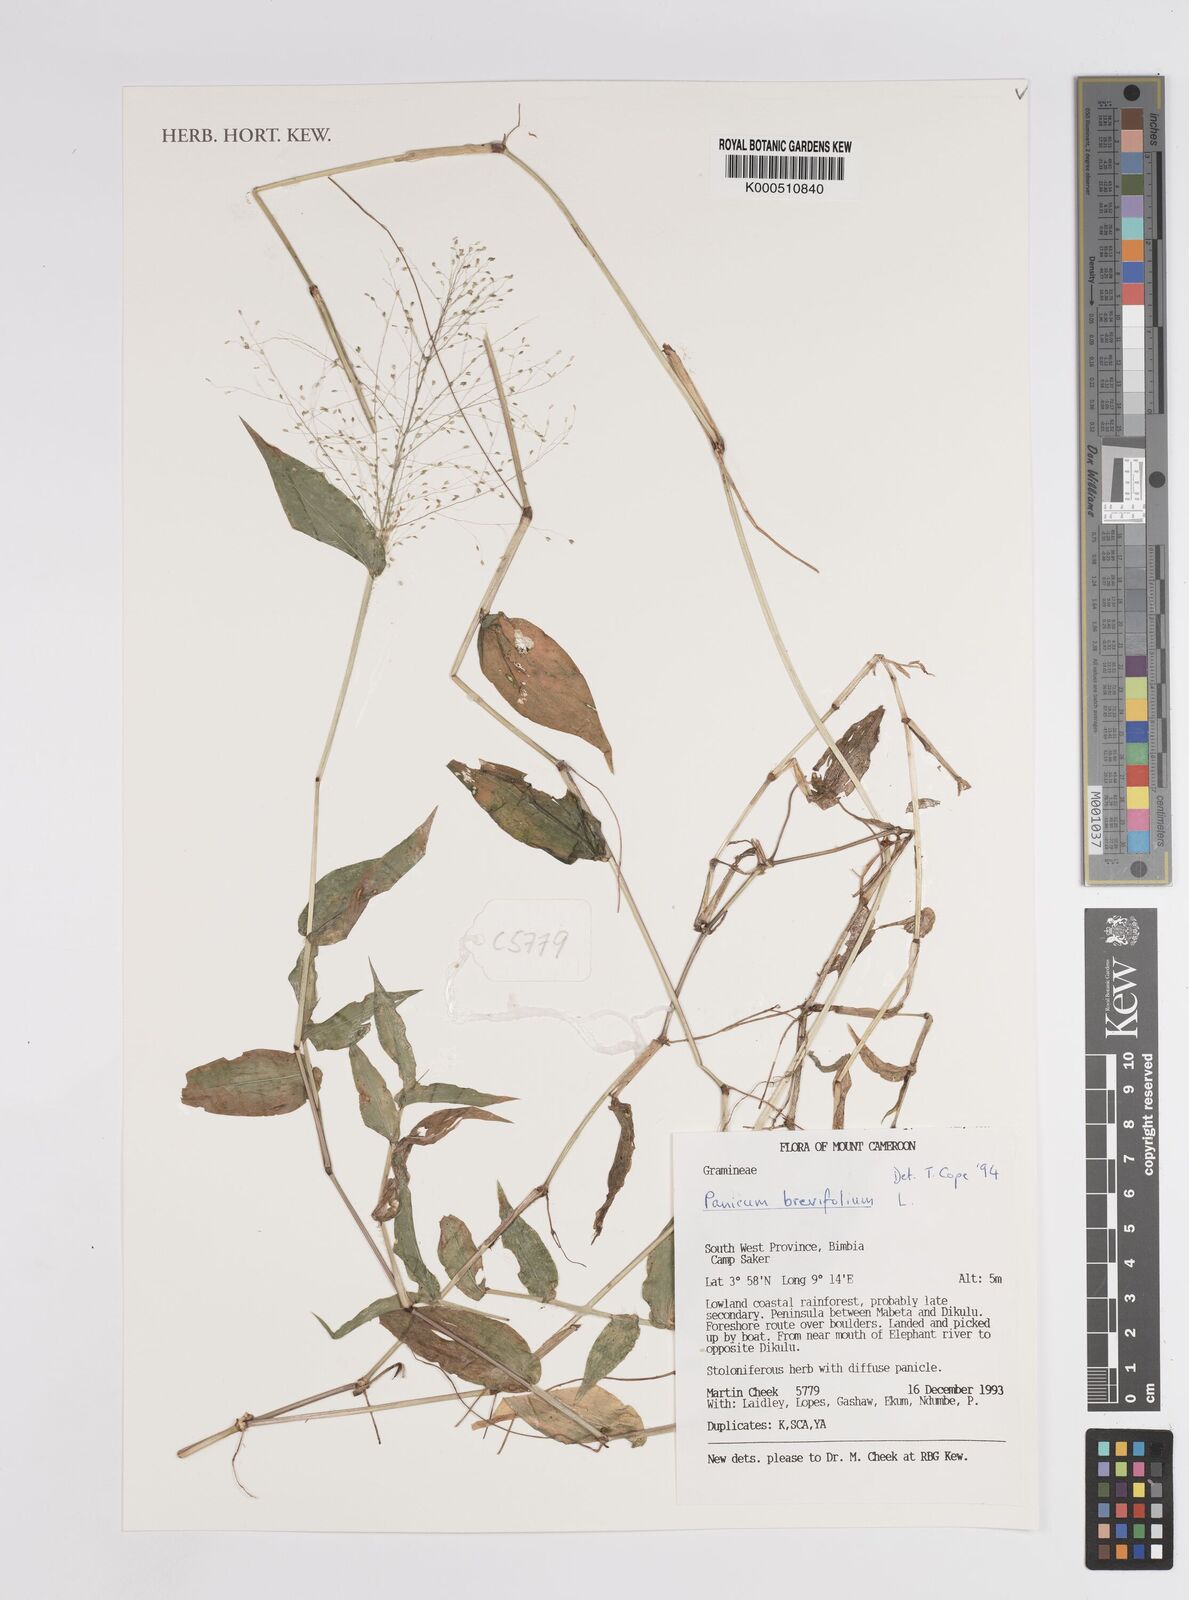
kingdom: Plantae
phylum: Tracheophyta
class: Liliopsida
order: Poales
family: Poaceae
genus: Panicum
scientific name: Panicum brevifolium
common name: Shortleaf panic grass
